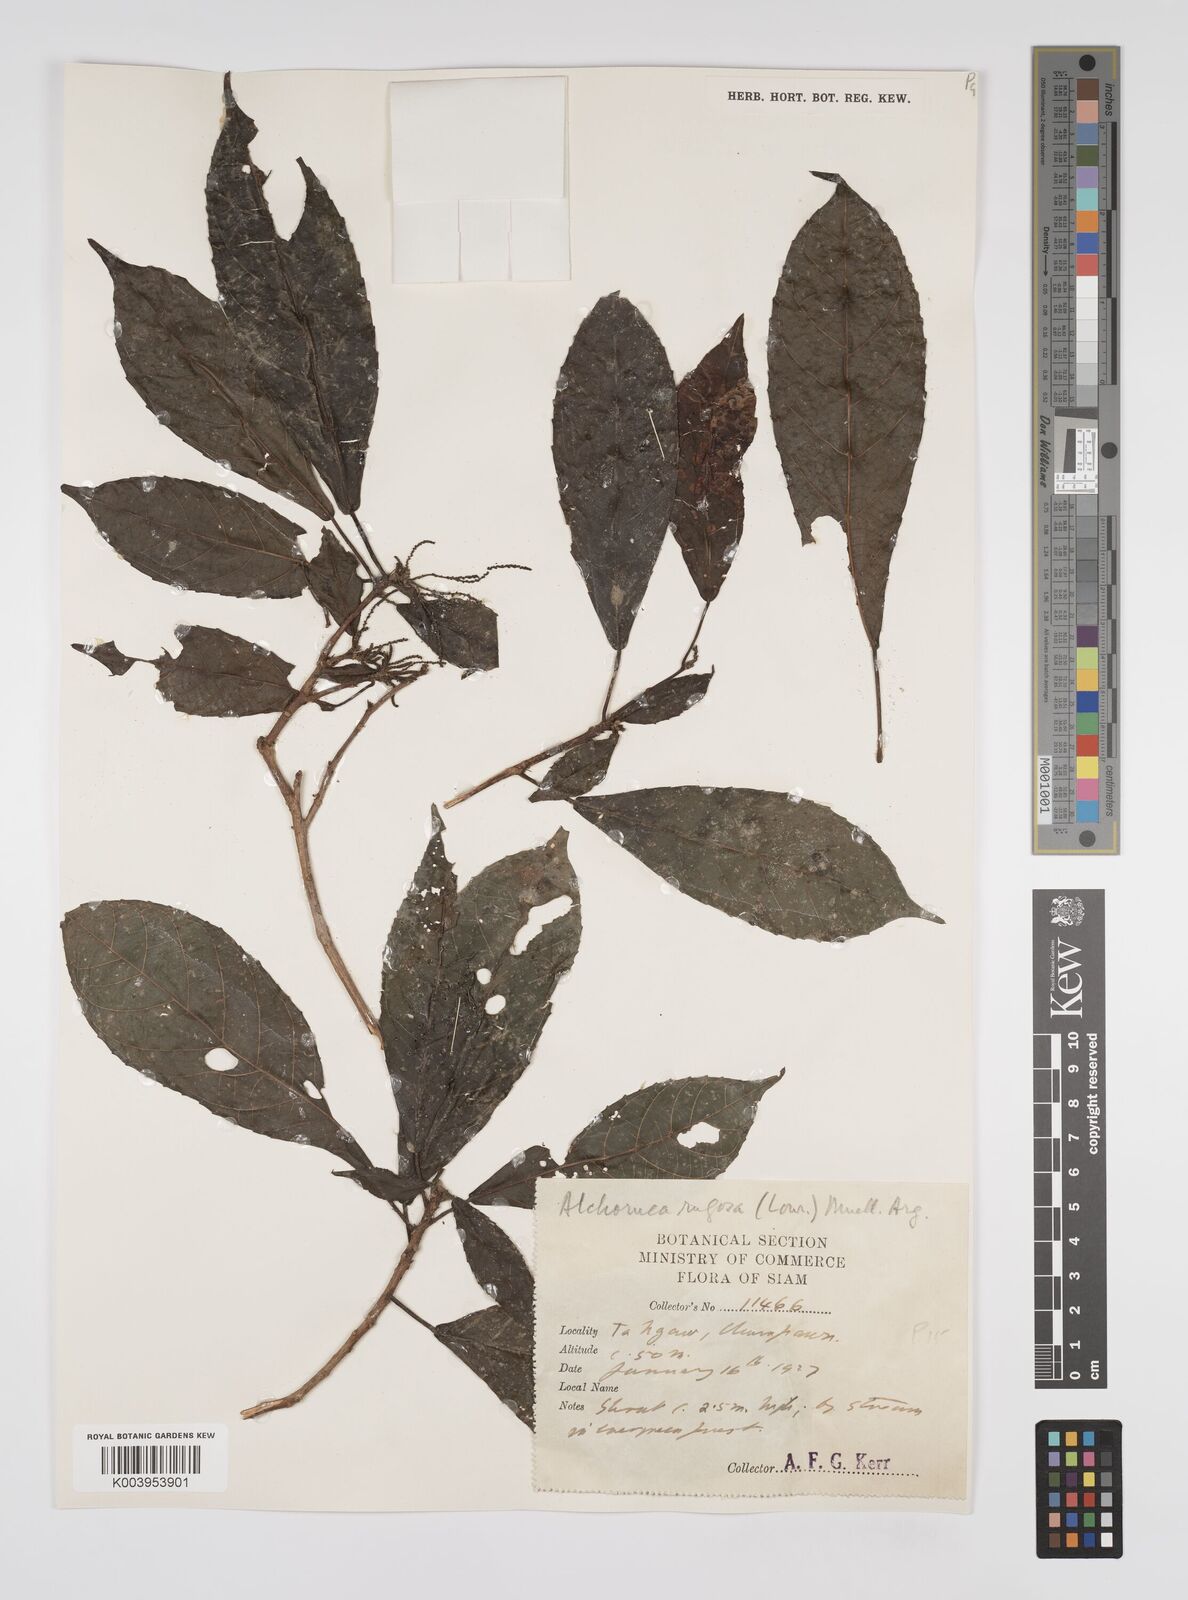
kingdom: Plantae
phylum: Tracheophyta
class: Magnoliopsida
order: Malpighiales
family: Euphorbiaceae
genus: Alchornea
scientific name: Alchornea rugosa
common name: Alchorntree
